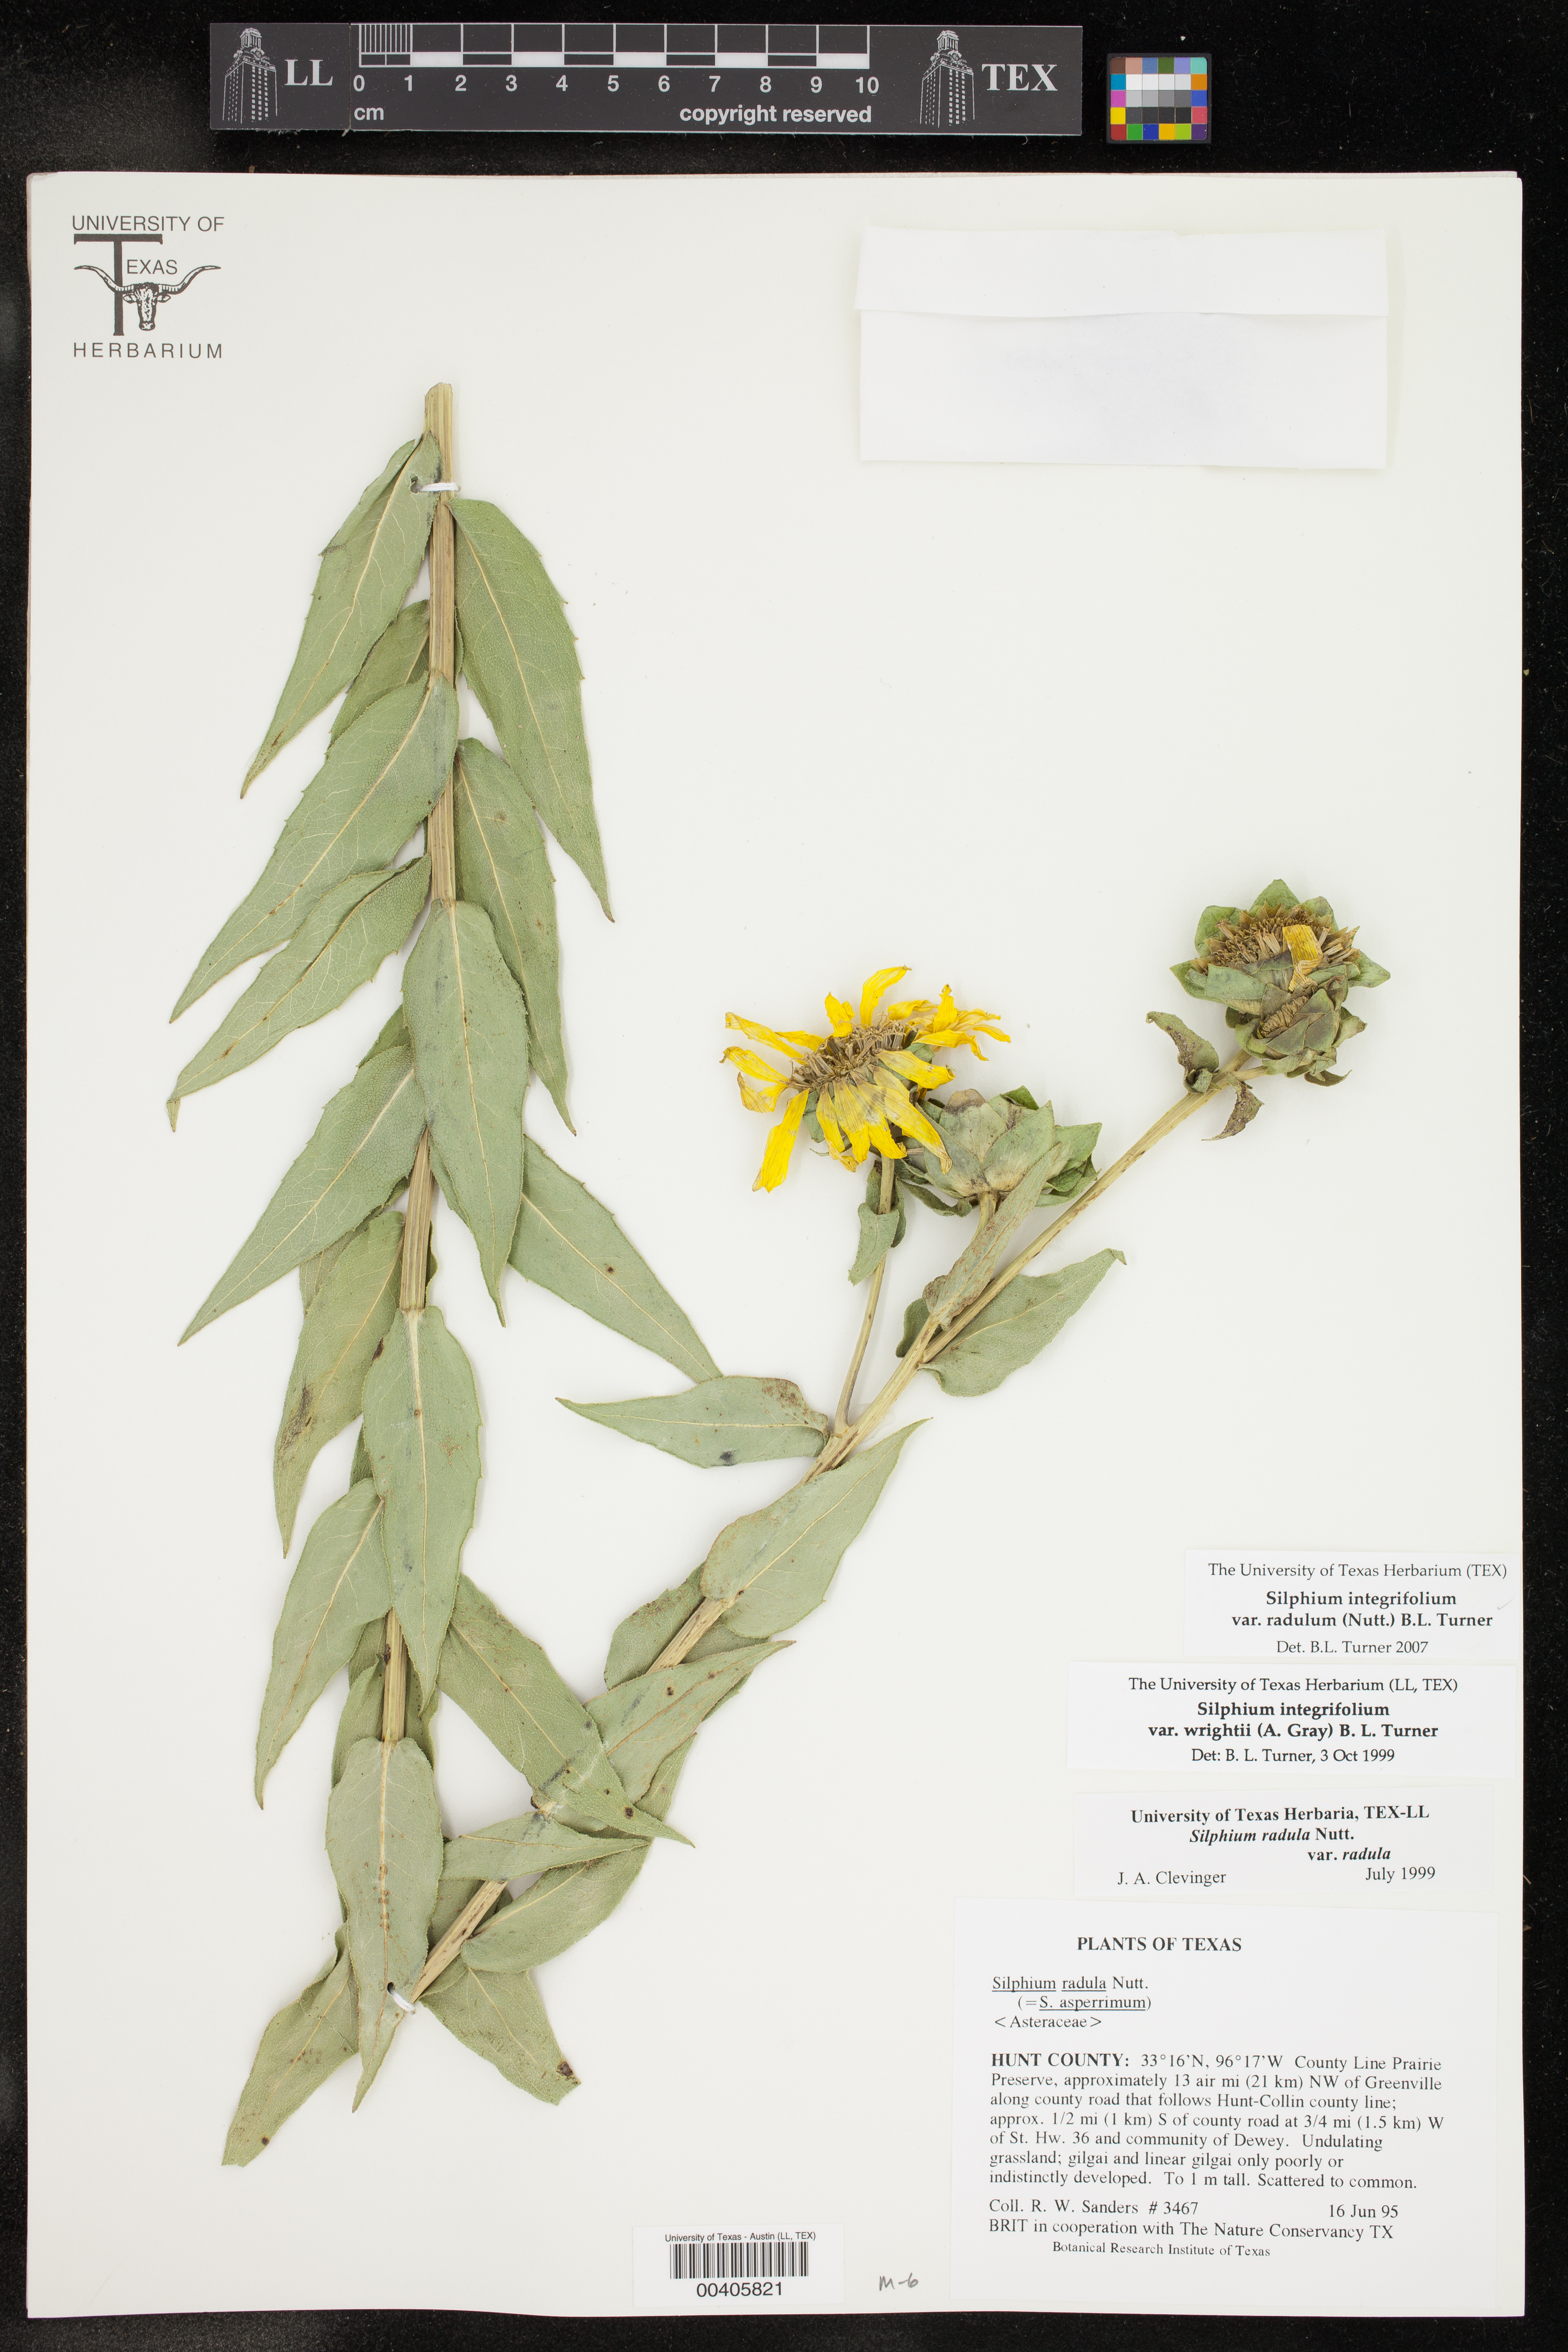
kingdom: Plantae
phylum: Tracheophyta
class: Magnoliopsida
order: Asterales
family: Asteraceae
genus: Silphium
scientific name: Silphium asperrimum
